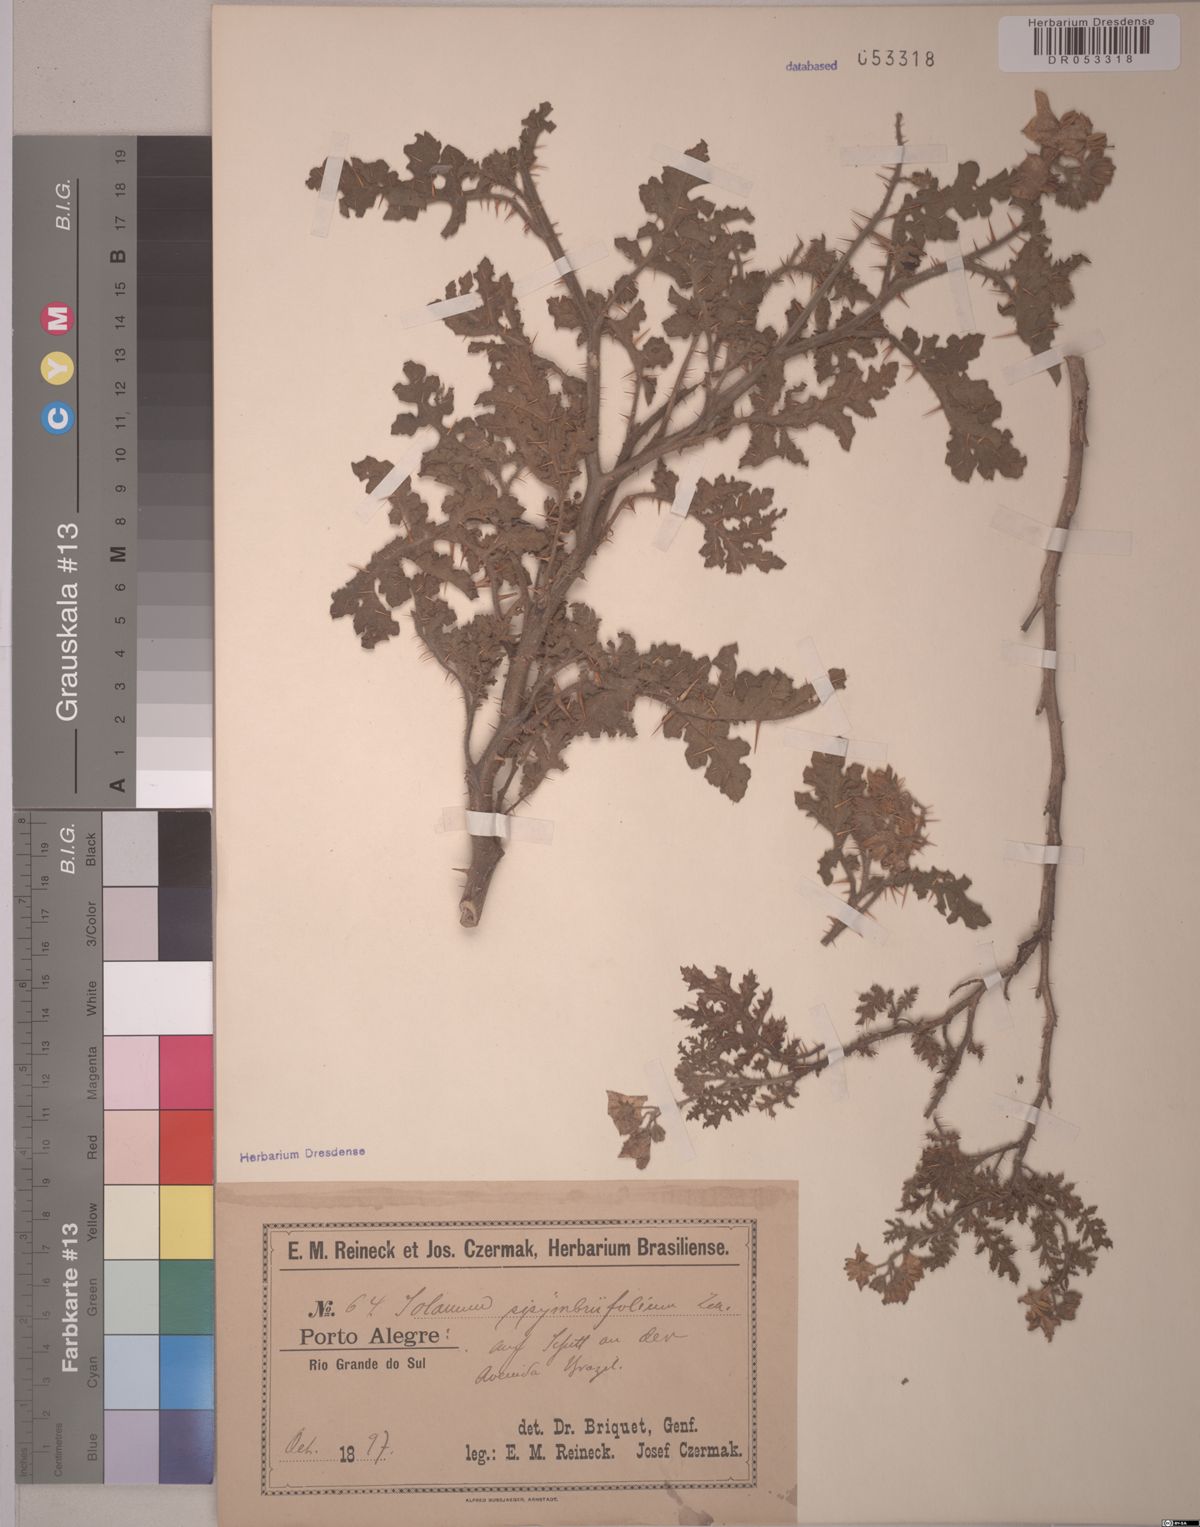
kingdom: Plantae
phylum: Tracheophyta
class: Magnoliopsida
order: Solanales
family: Solanaceae
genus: Solanum
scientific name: Solanum sisymbriifolium
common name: Red buffalo-bur
